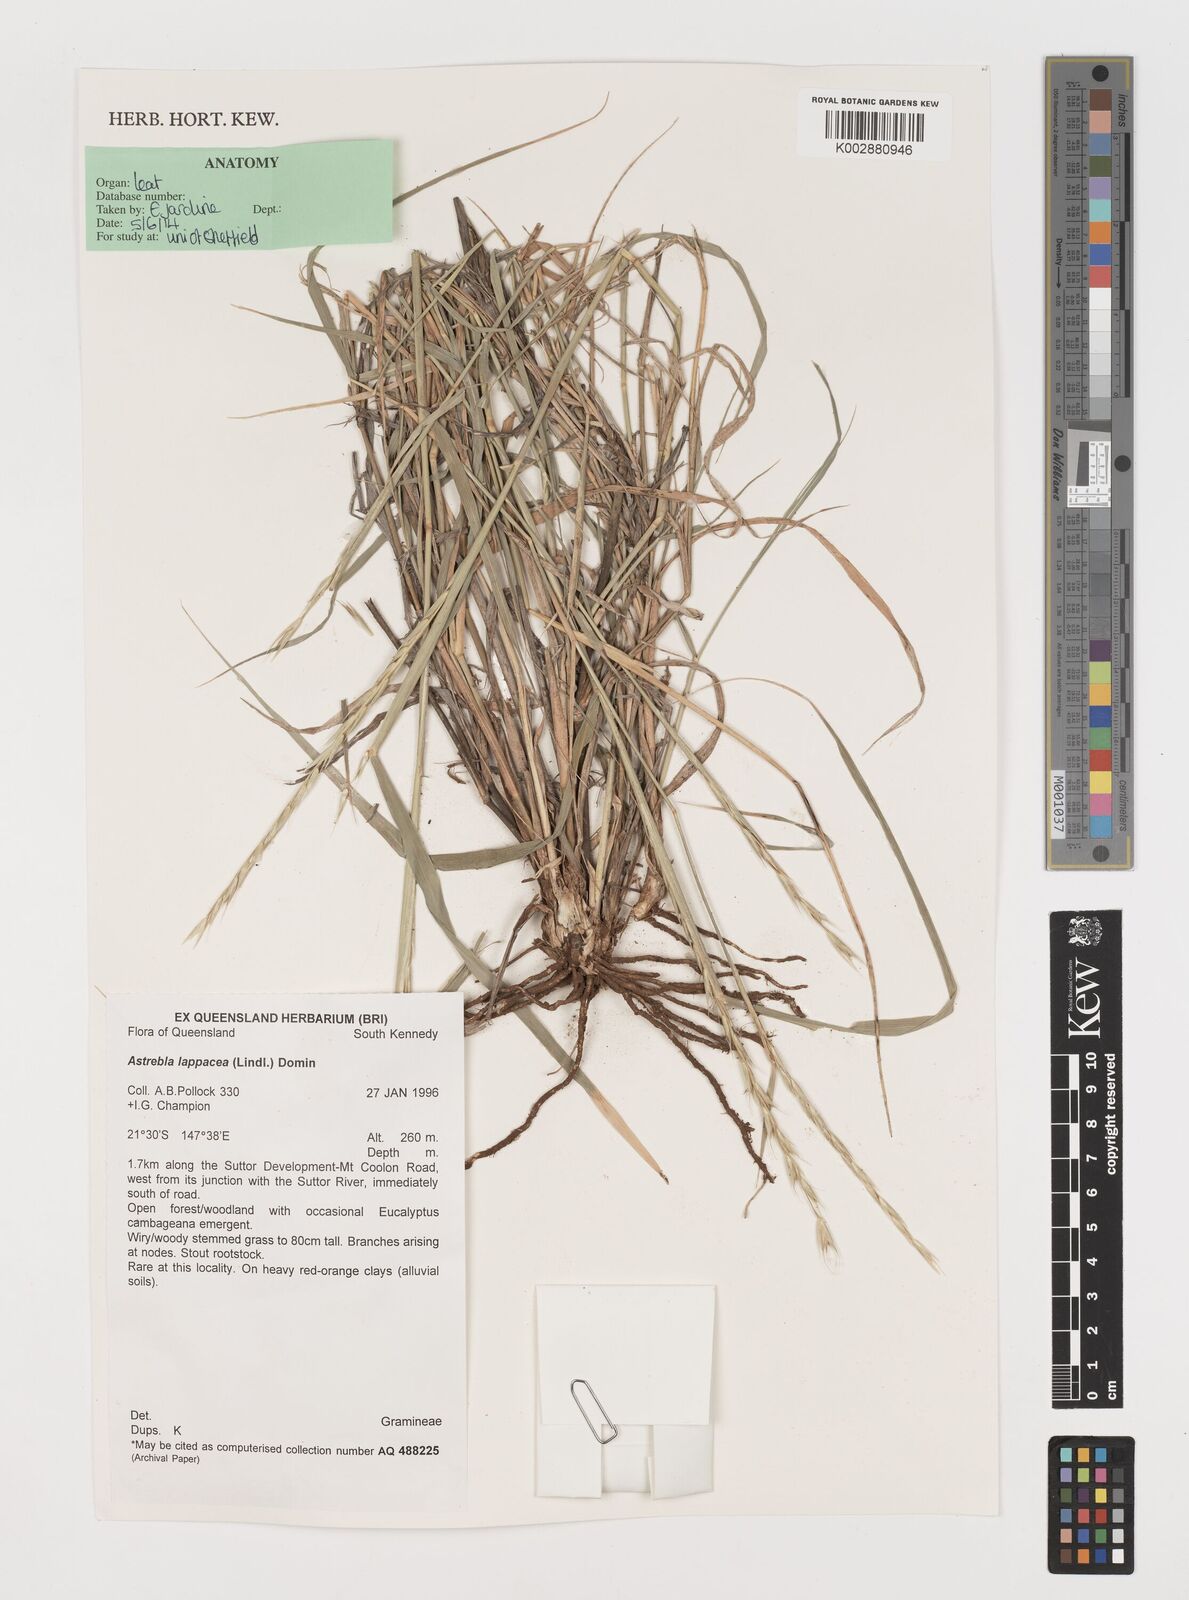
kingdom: Plantae
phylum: Tracheophyta
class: Liliopsida
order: Poales
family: Poaceae
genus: Astrebla
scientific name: Astrebla lappacea
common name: Curly mitchell grass
